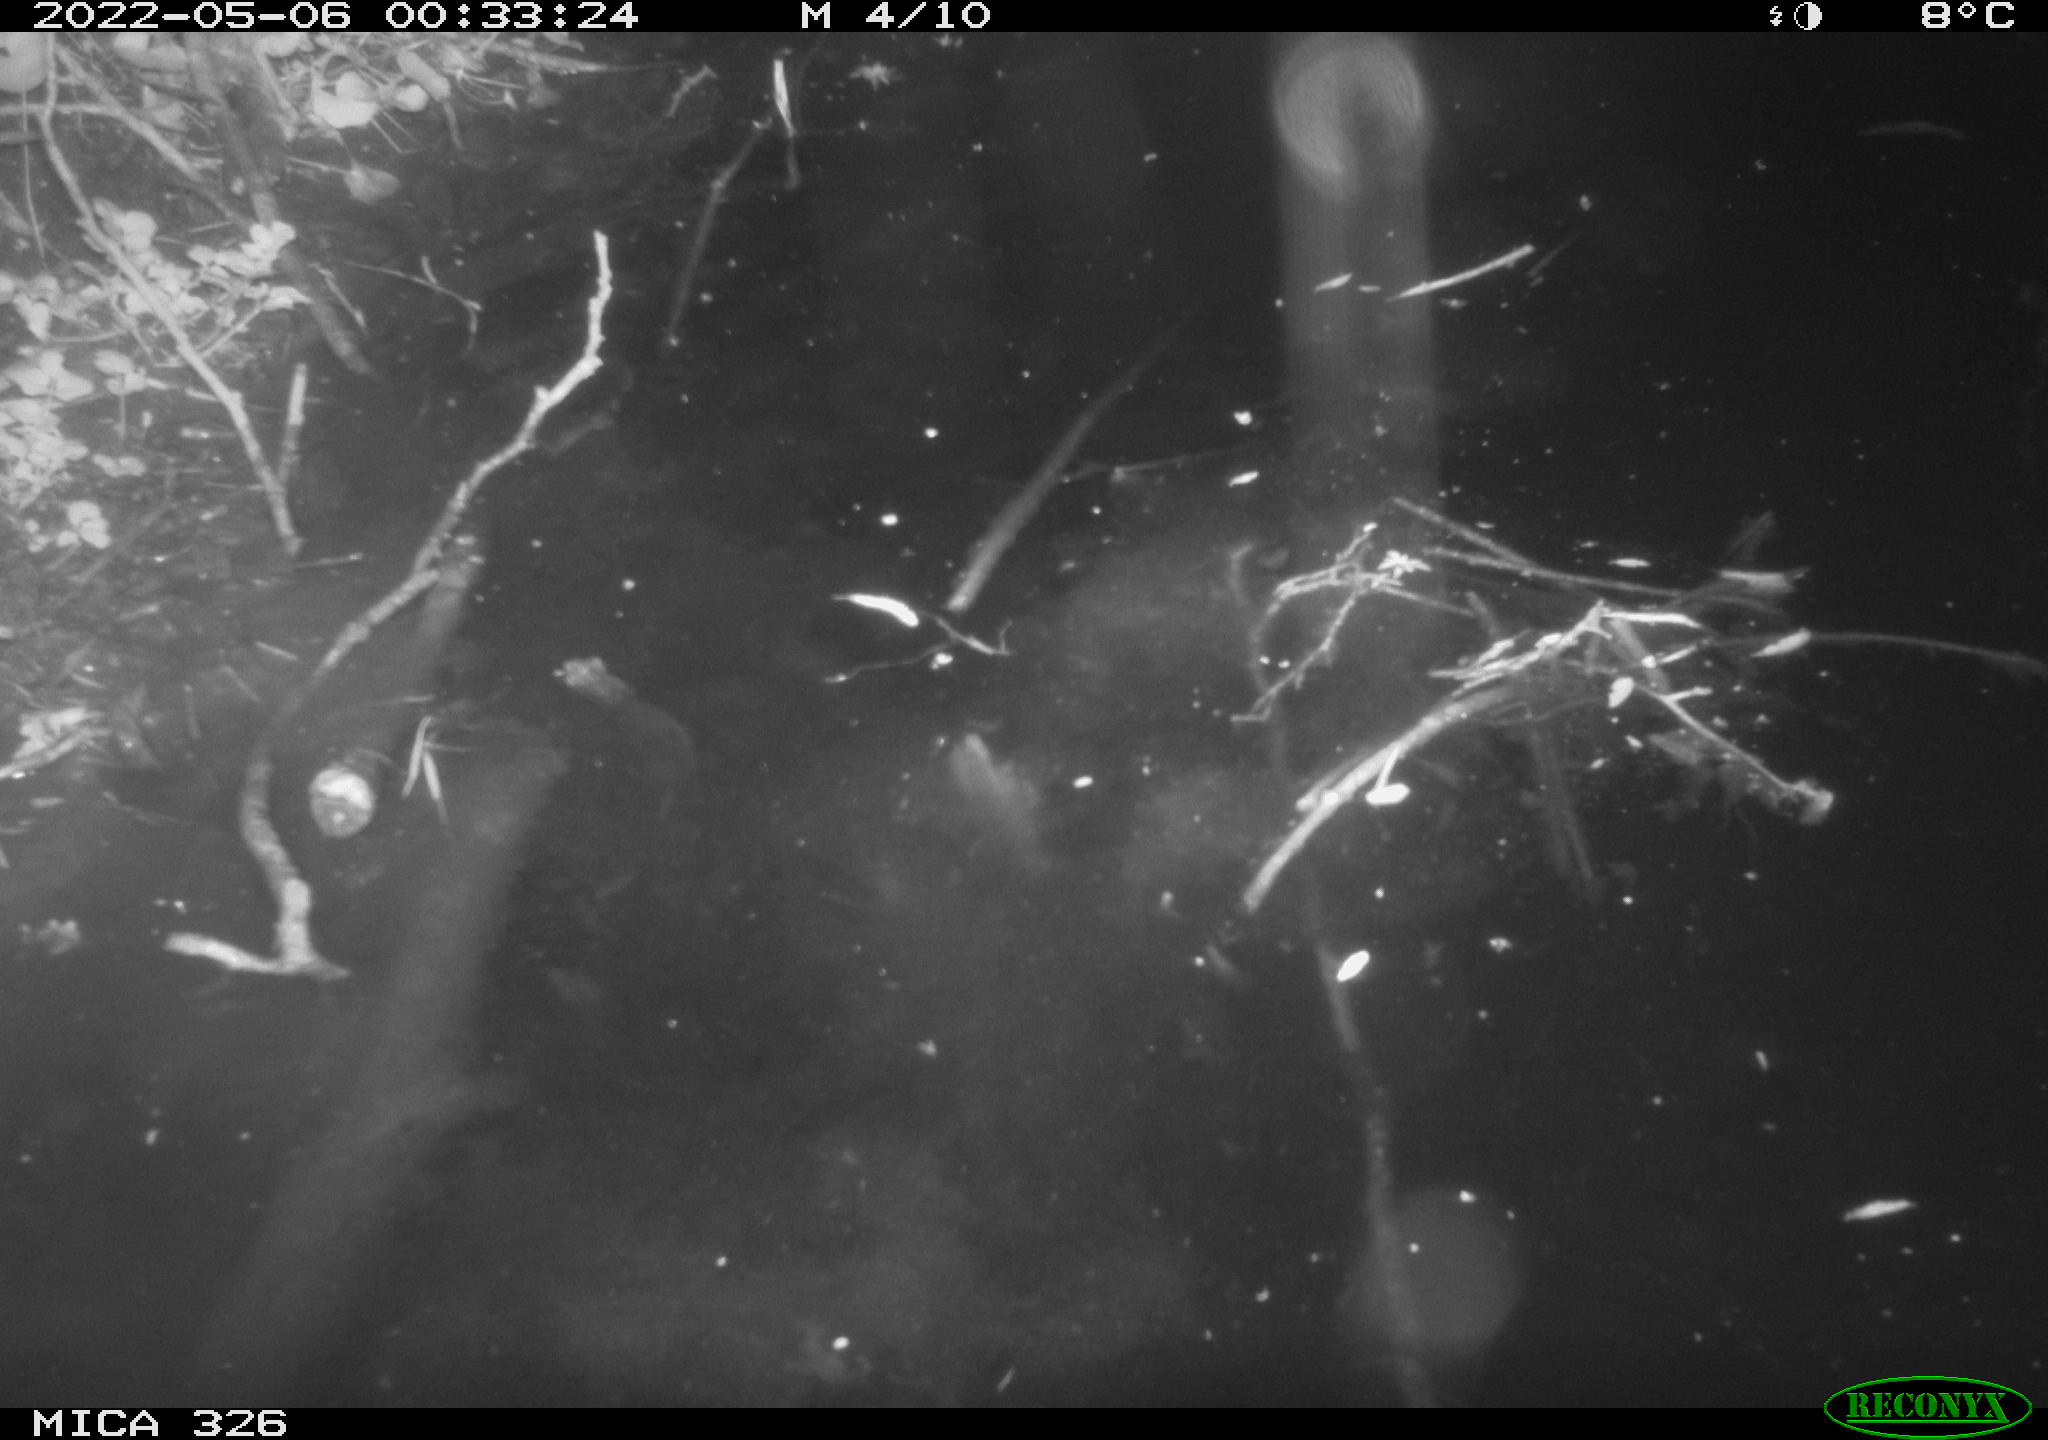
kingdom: Animalia
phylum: Chordata
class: Mammalia
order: Rodentia
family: Cricetidae
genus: Ondatra
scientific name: Ondatra zibethicus
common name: Muskrat
